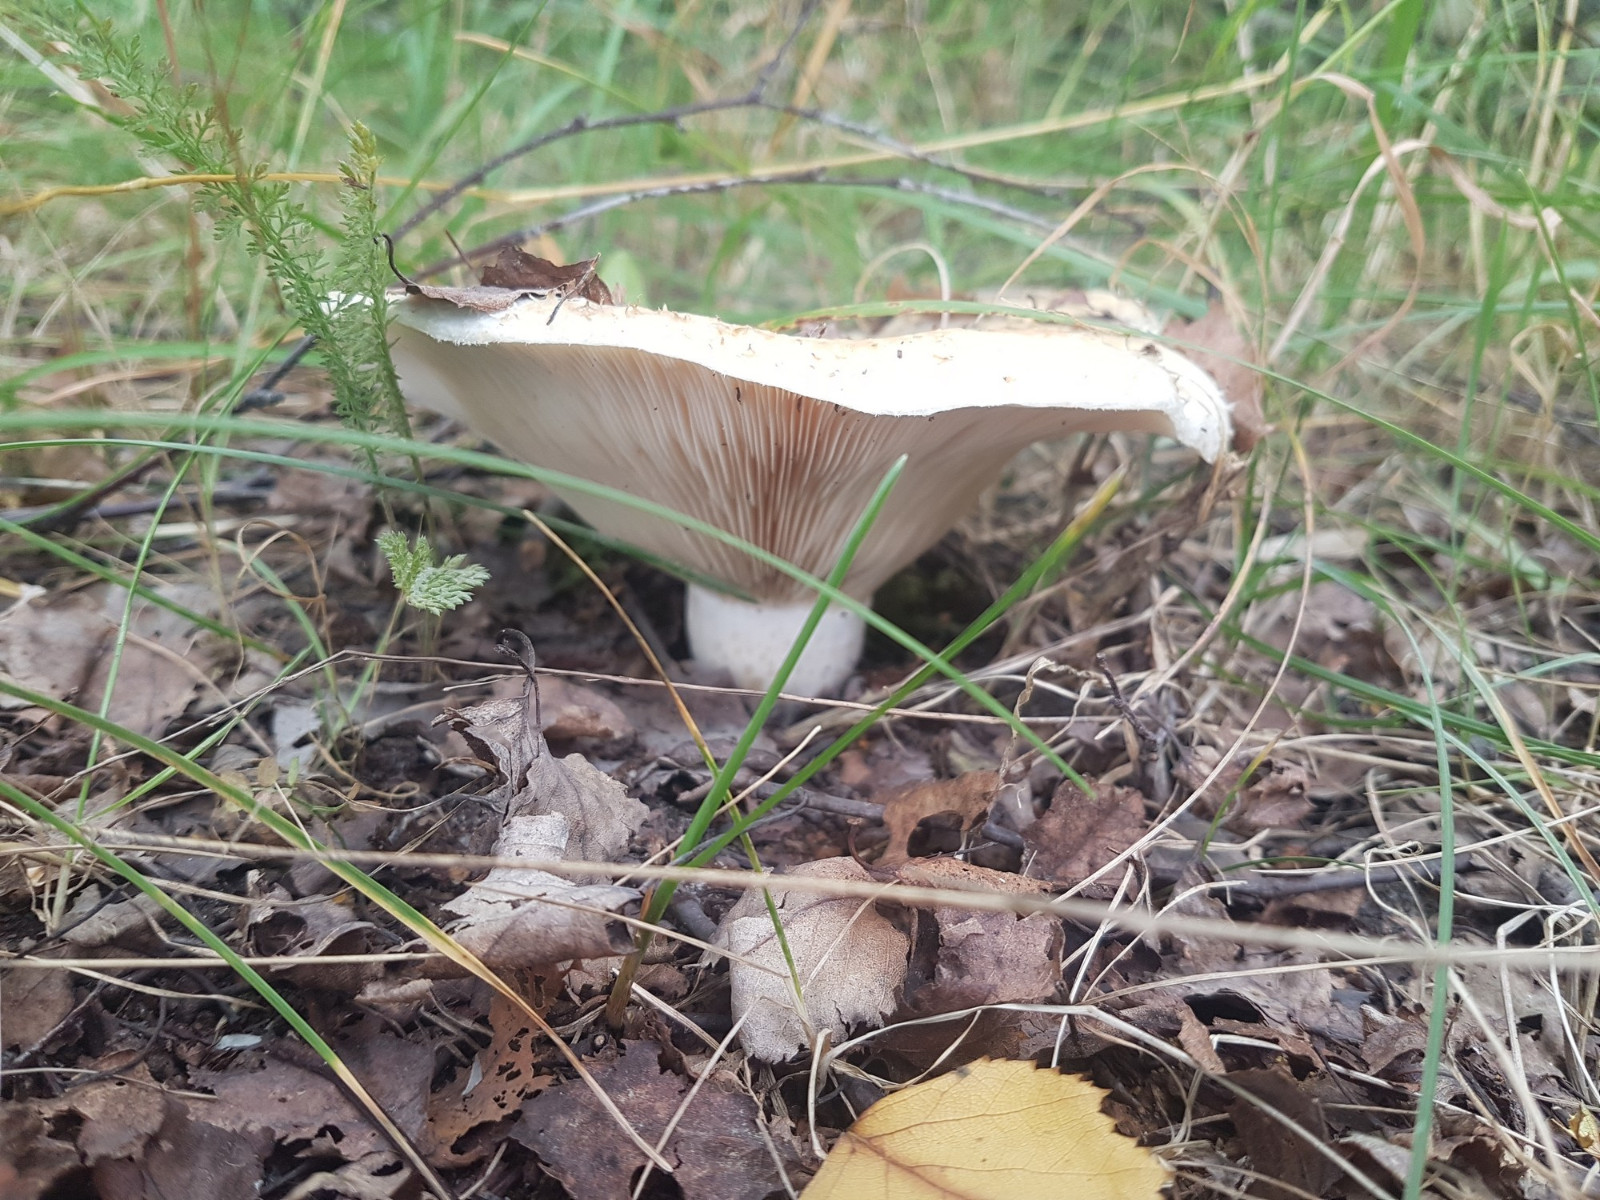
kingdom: Fungi
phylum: Basidiomycota
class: Agaricomycetes
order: Russulales
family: Russulaceae
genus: Lactarius
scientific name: Lactarius aquizonatus
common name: vandbæltet mælkehat
